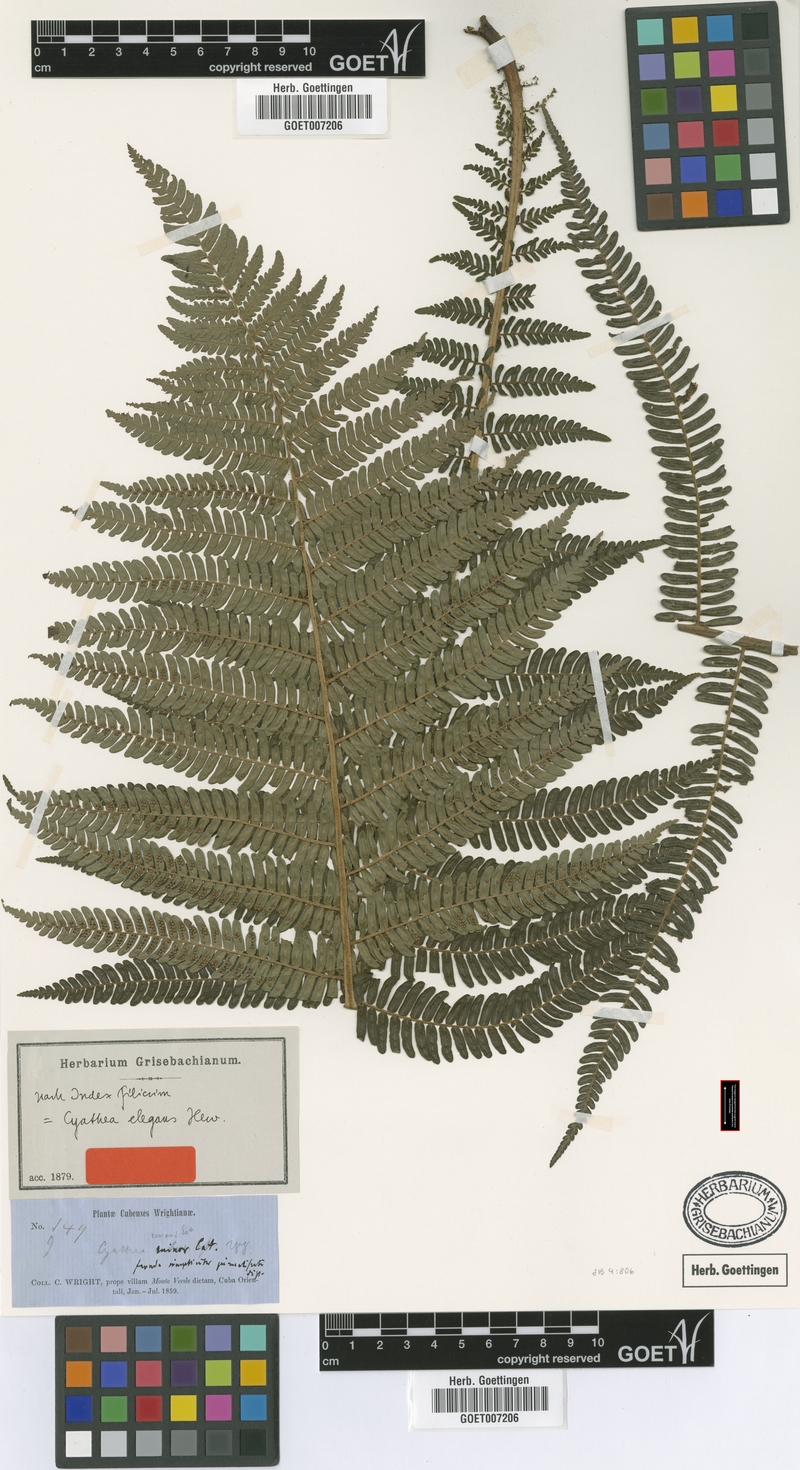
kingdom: Plantae
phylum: Tracheophyta
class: Polypodiopsida
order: Cyatheales
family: Cyatheaceae
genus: Alsophila
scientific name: Alsophila grevilleana
